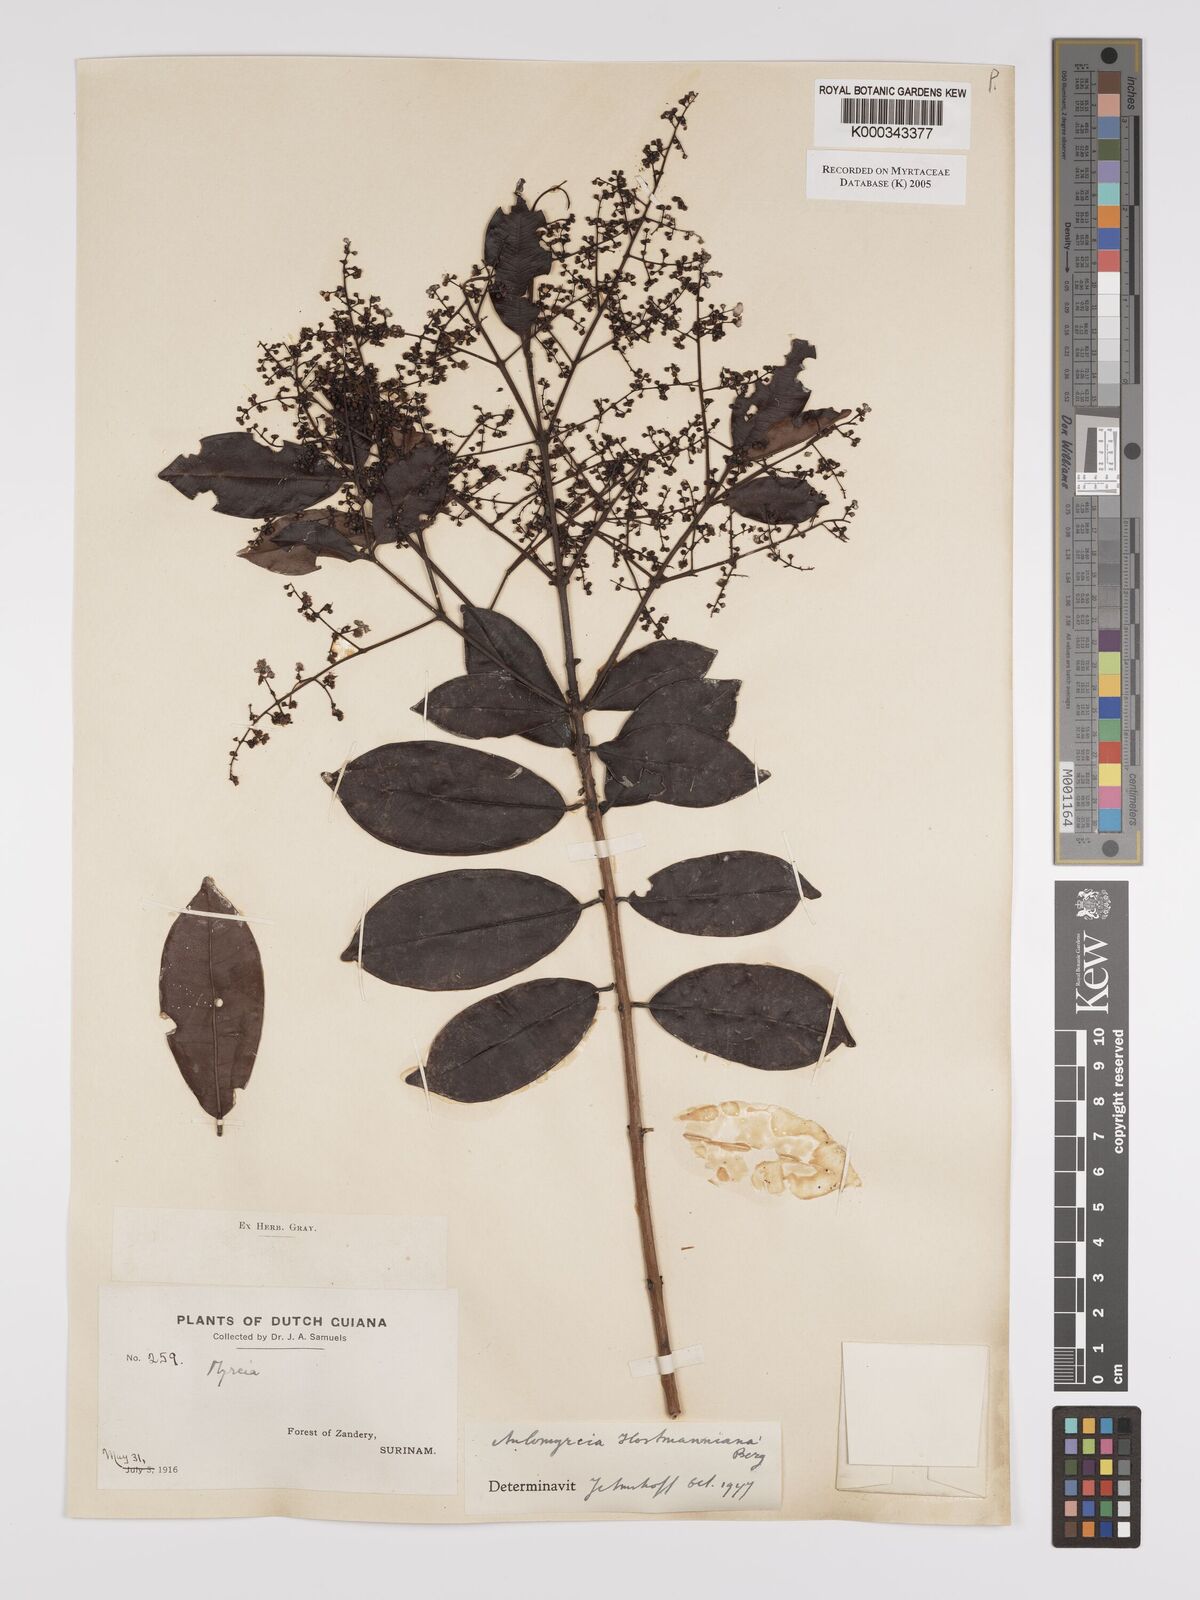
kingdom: Plantae
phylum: Tracheophyta
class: Magnoliopsida
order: Myrtales
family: Myrtaceae
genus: Myrcia
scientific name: Myrcia amazonica
